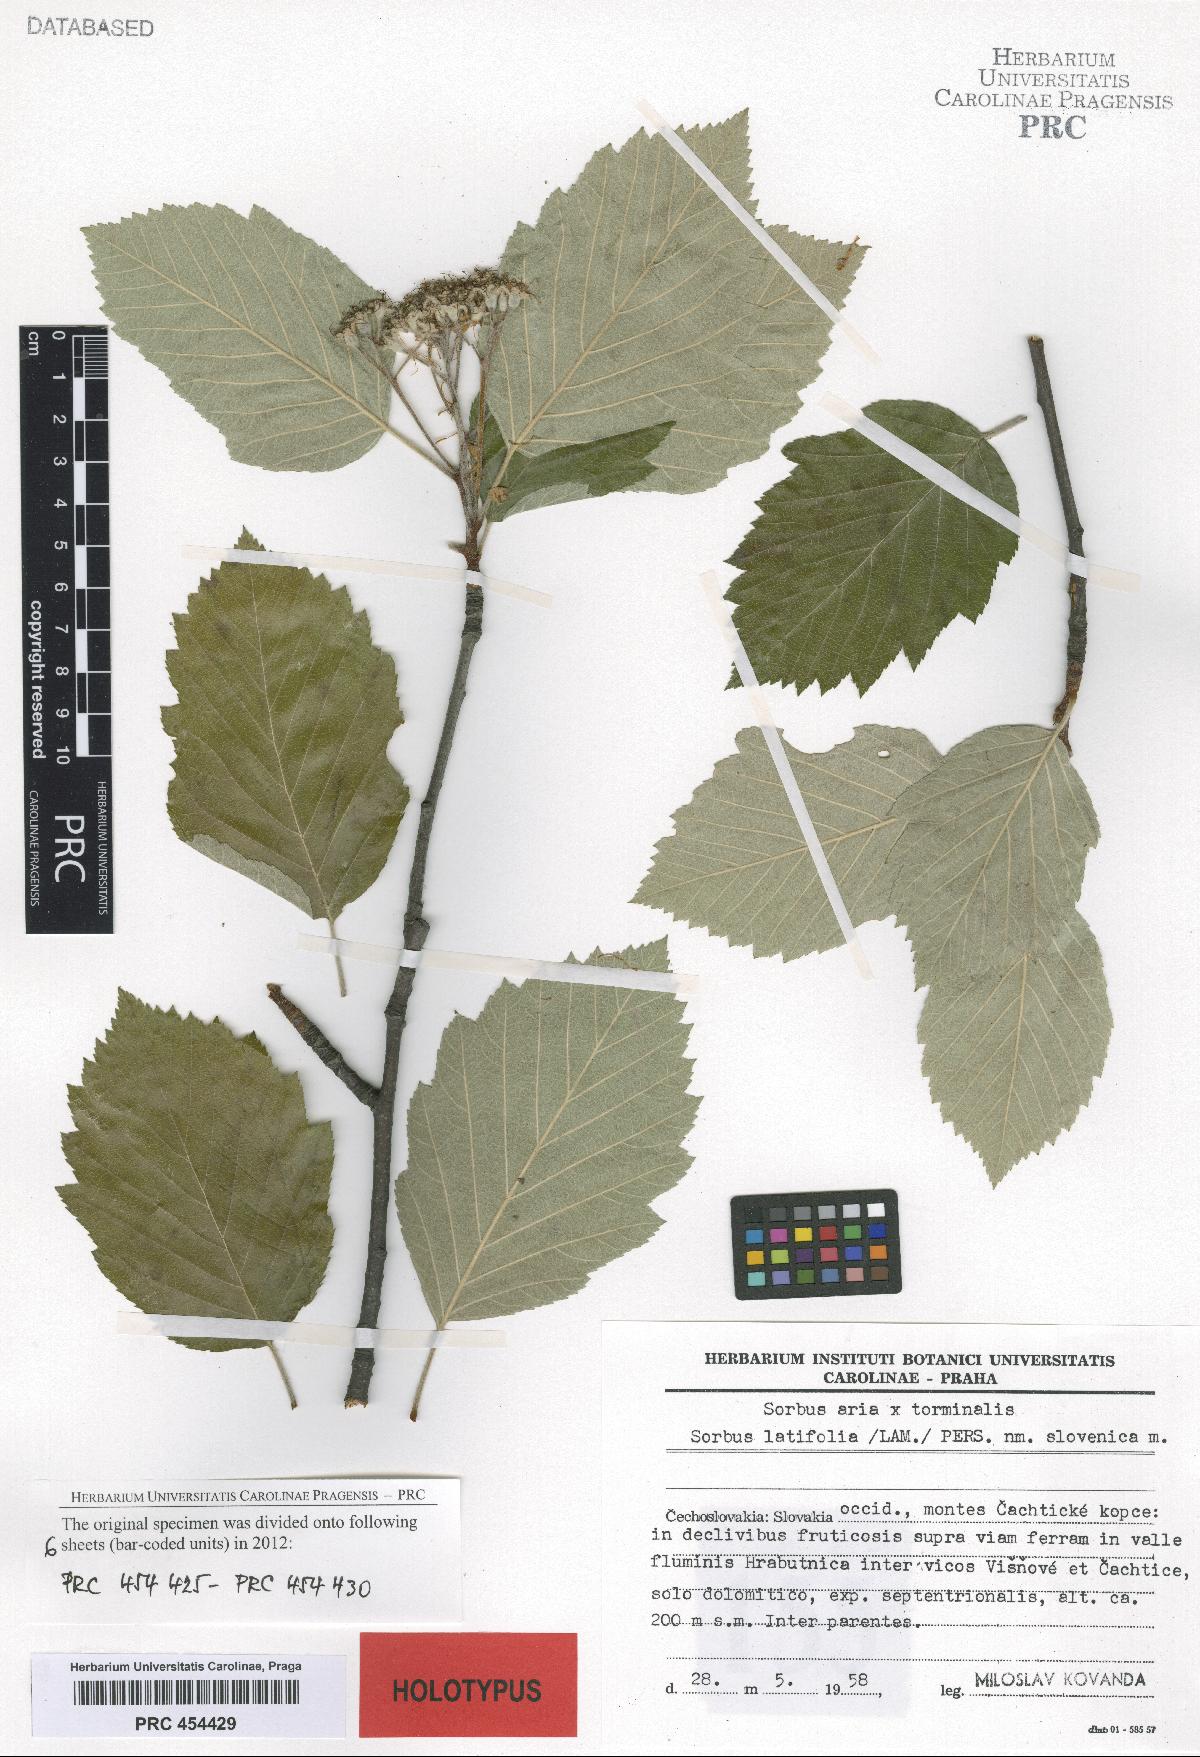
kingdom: Plantae
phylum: Tracheophyta
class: Magnoliopsida
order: Rosales
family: Rosaceae
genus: Karpatiosorbus
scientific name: Karpatiosorbus slovenica
